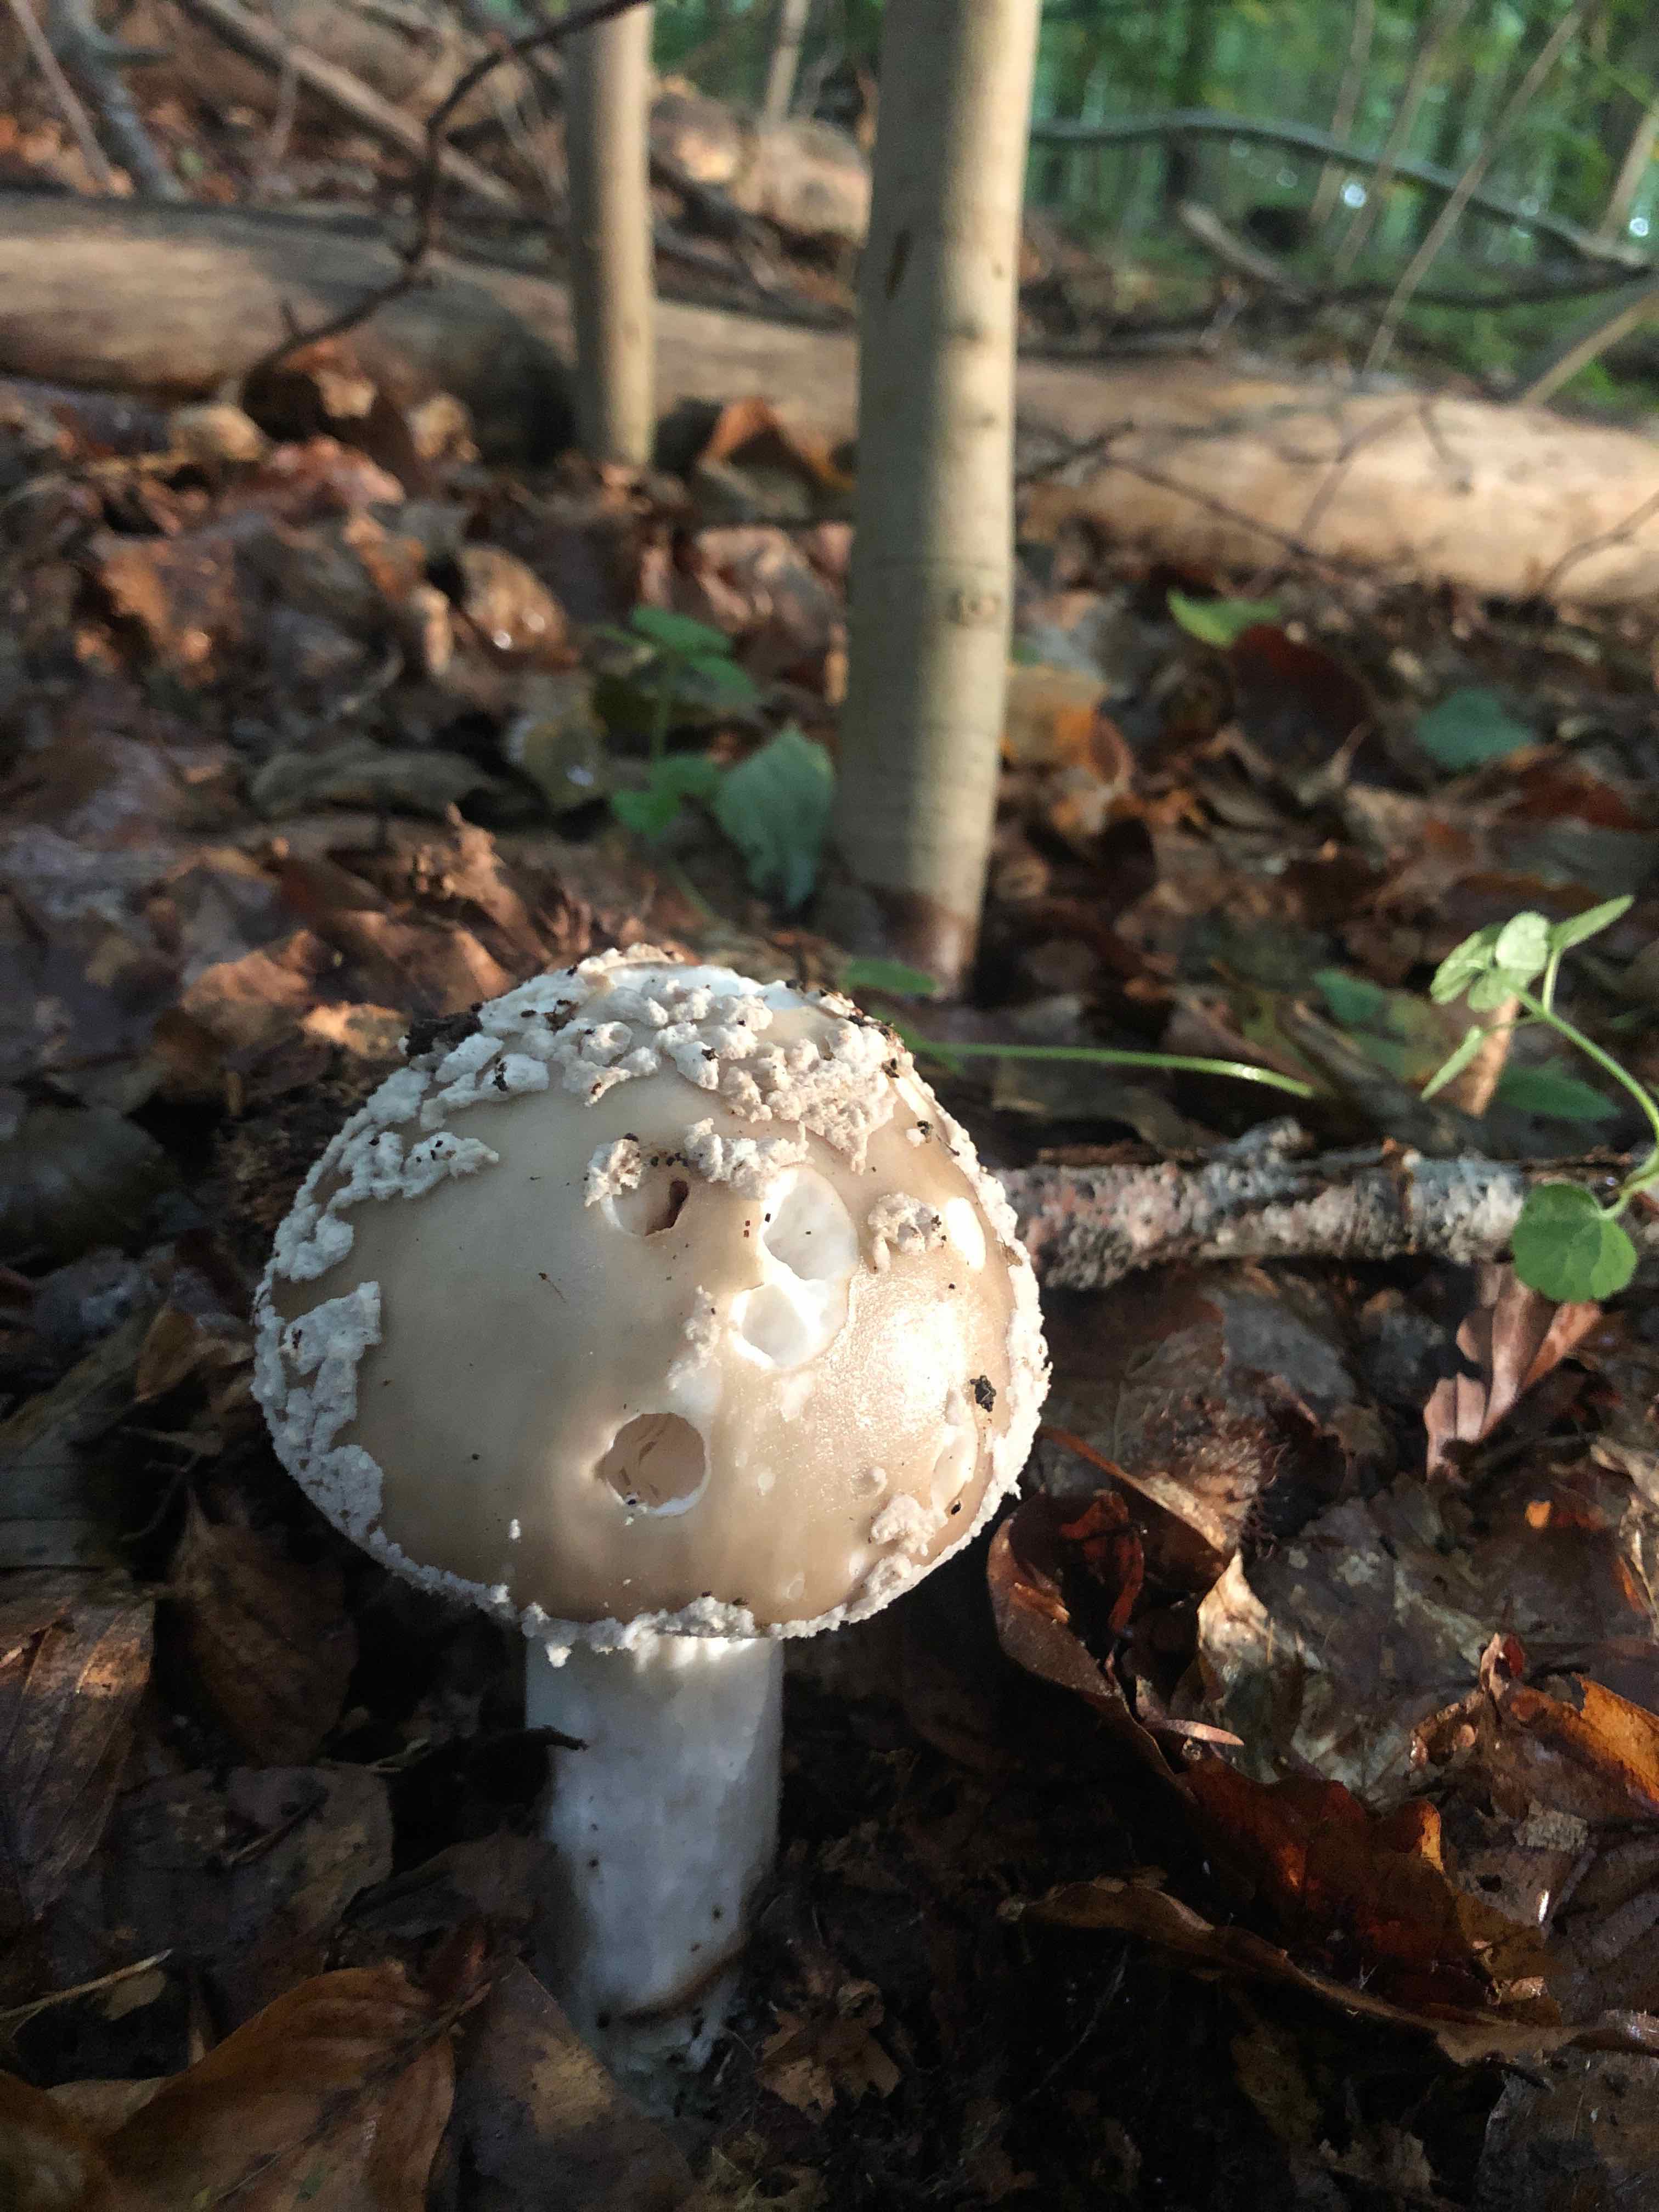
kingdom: Fungi
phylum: Basidiomycota
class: Agaricomycetes
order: Agaricales
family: Amanitaceae
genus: Amanita
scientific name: Amanita
